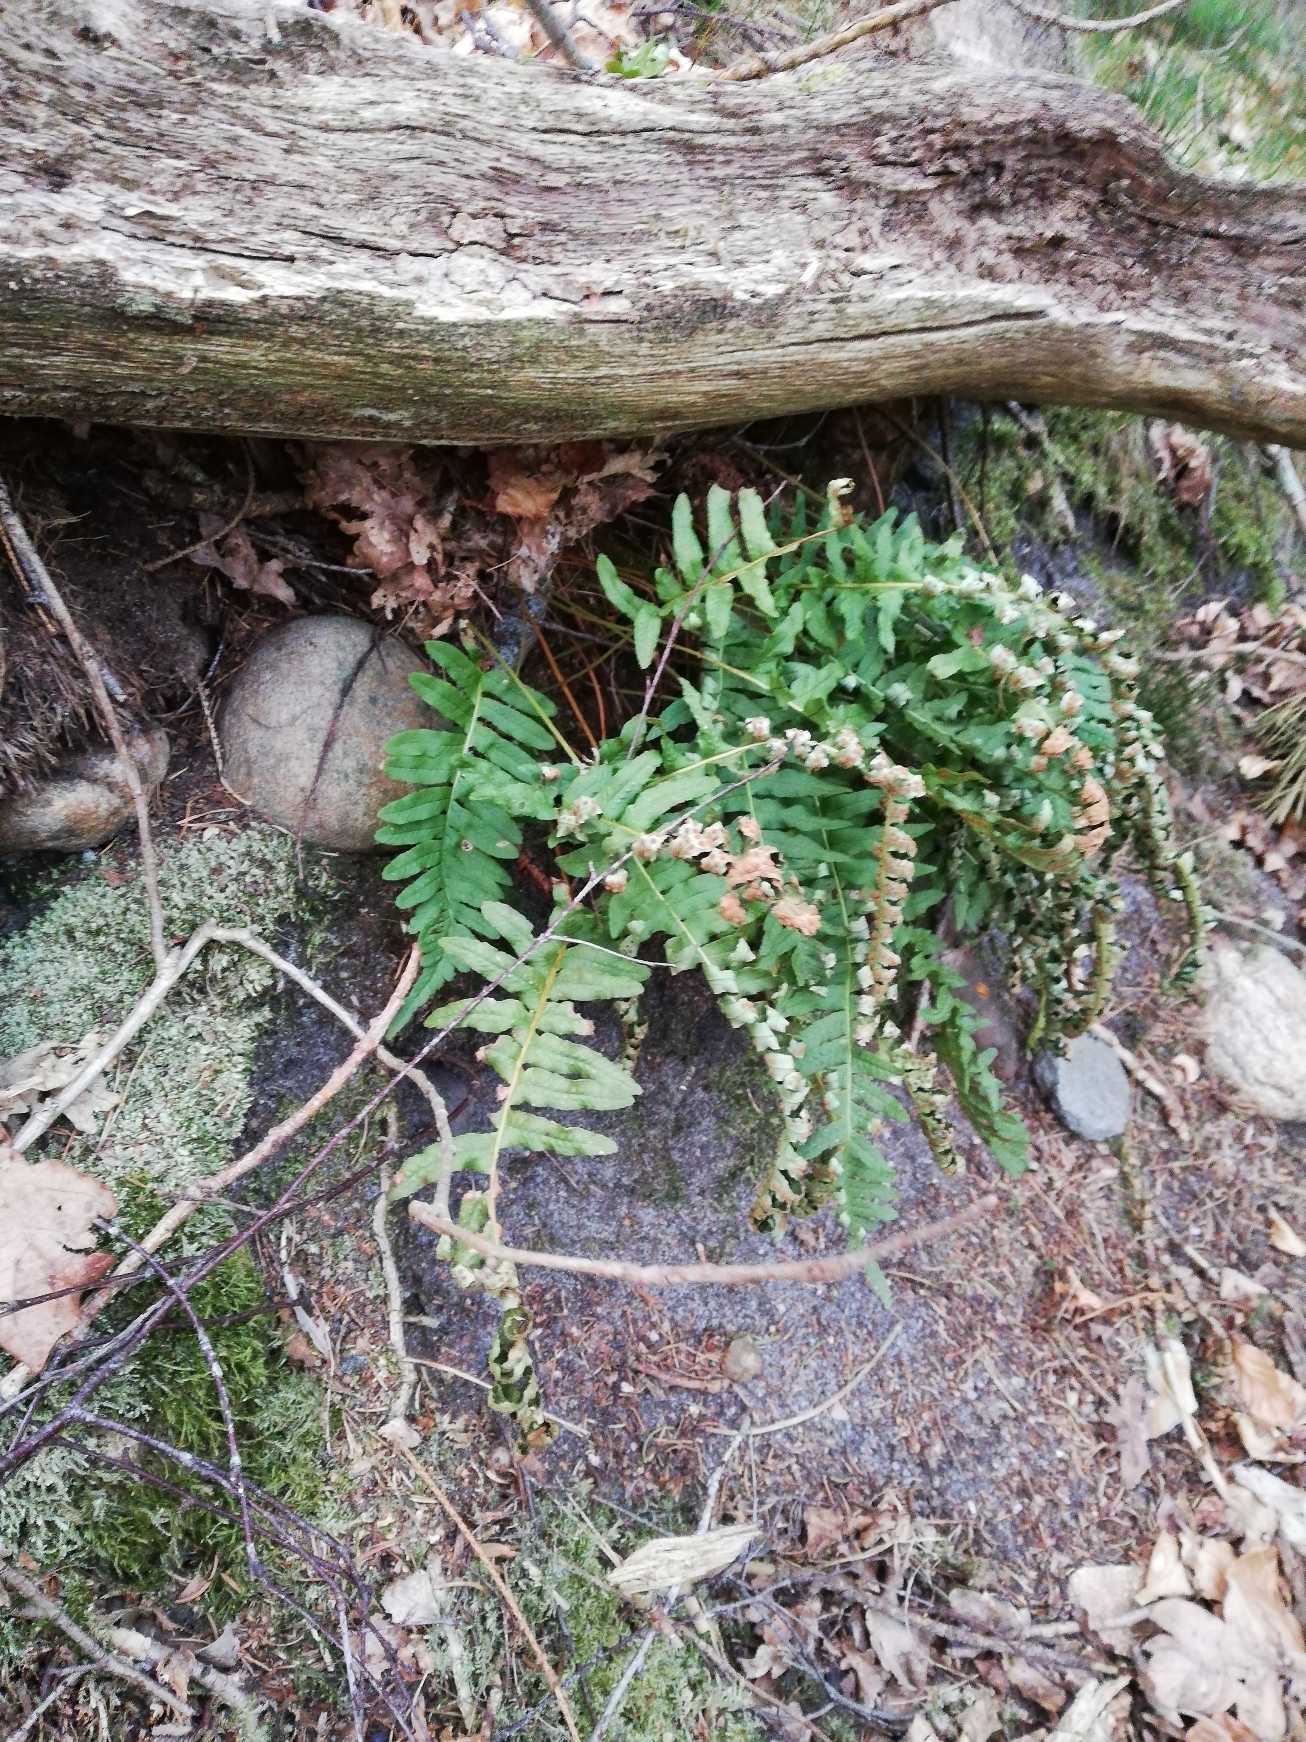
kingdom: Plantae
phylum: Tracheophyta
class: Polypodiopsida
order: Polypodiales
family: Polypodiaceae
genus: Polypodium
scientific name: Polypodium vulgare
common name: Almindelig engelsød
